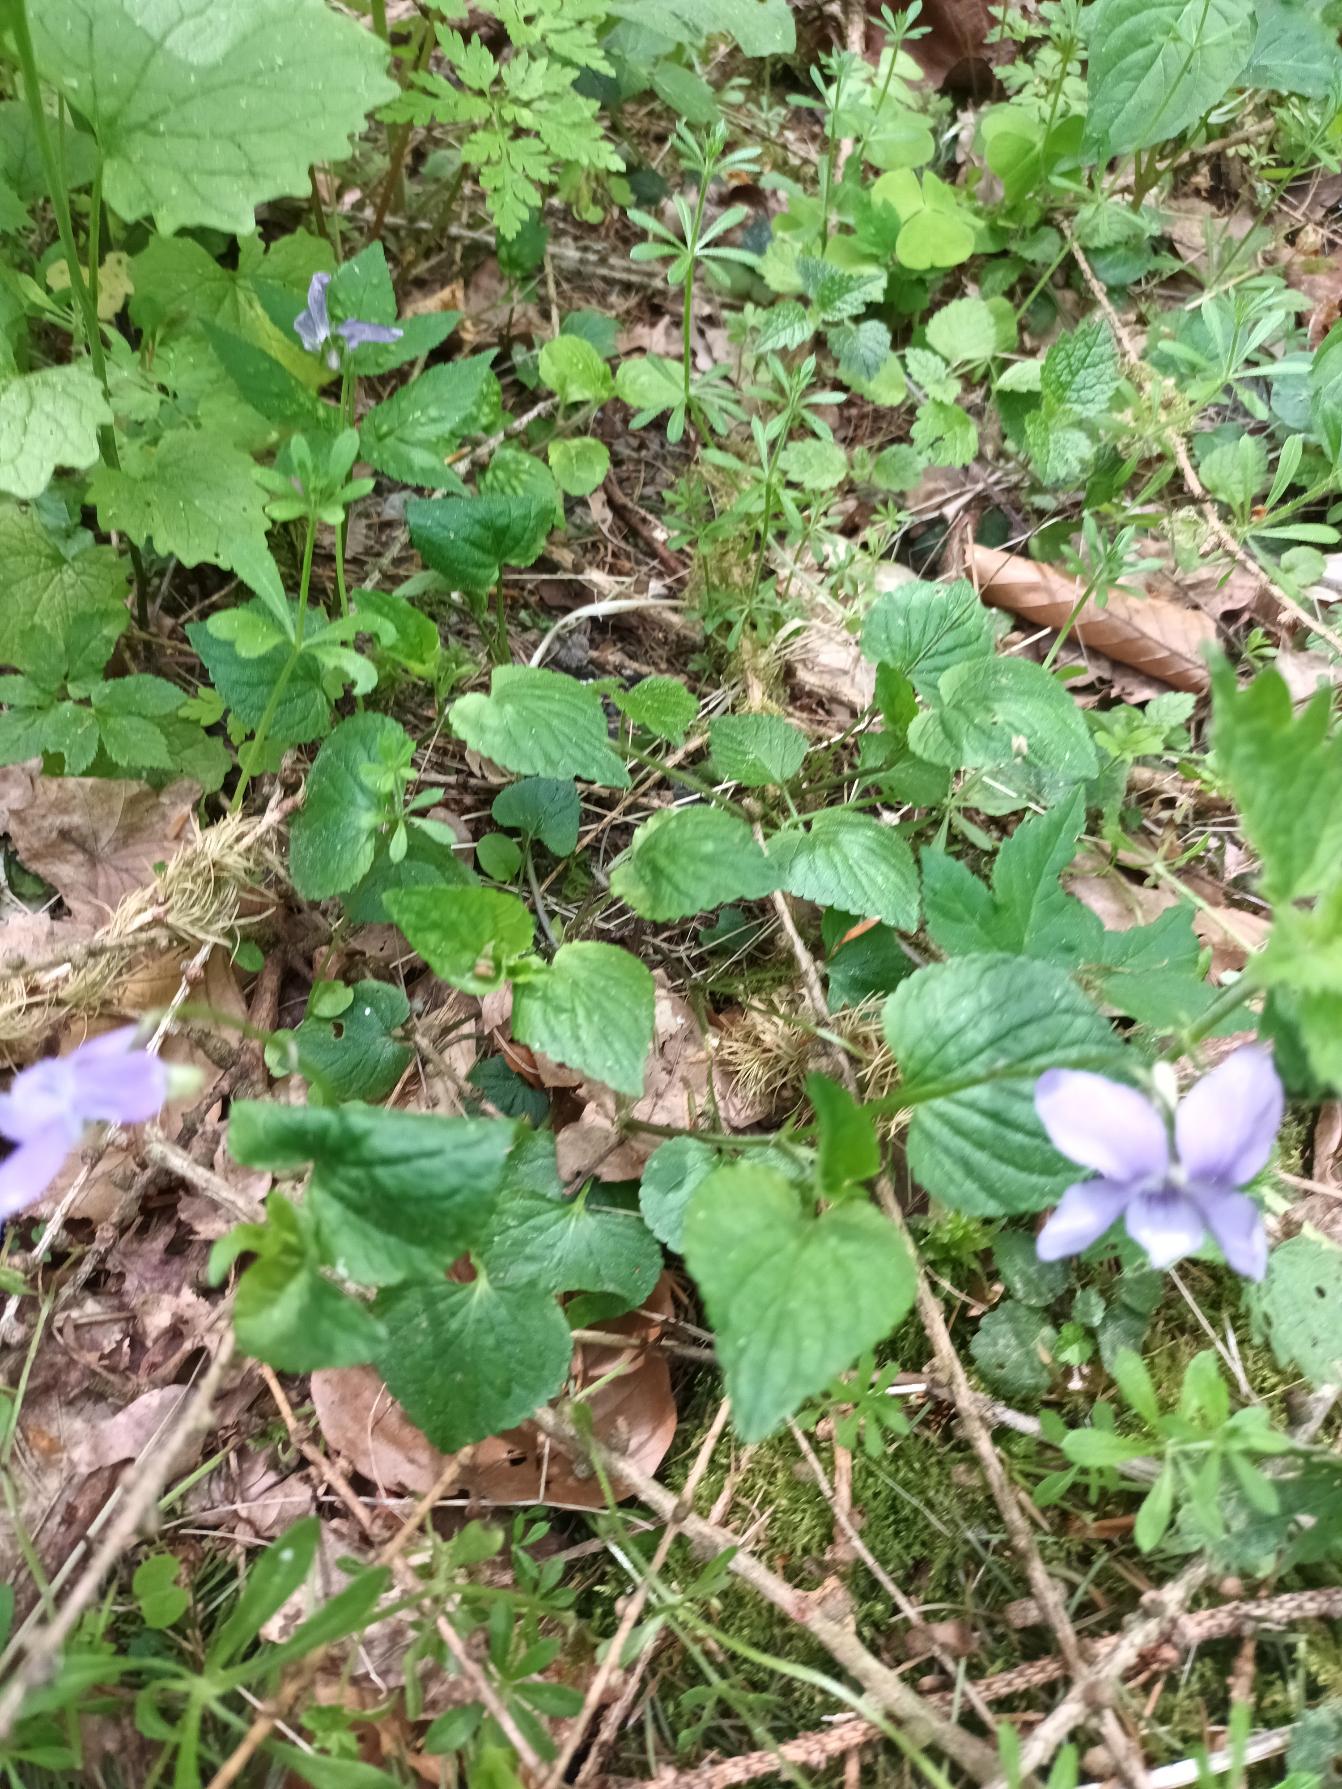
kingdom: Plantae
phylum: Tracheophyta
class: Magnoliopsida
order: Malpighiales
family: Violaceae
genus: Viola
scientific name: Viola riviniana
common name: Krat-viol
